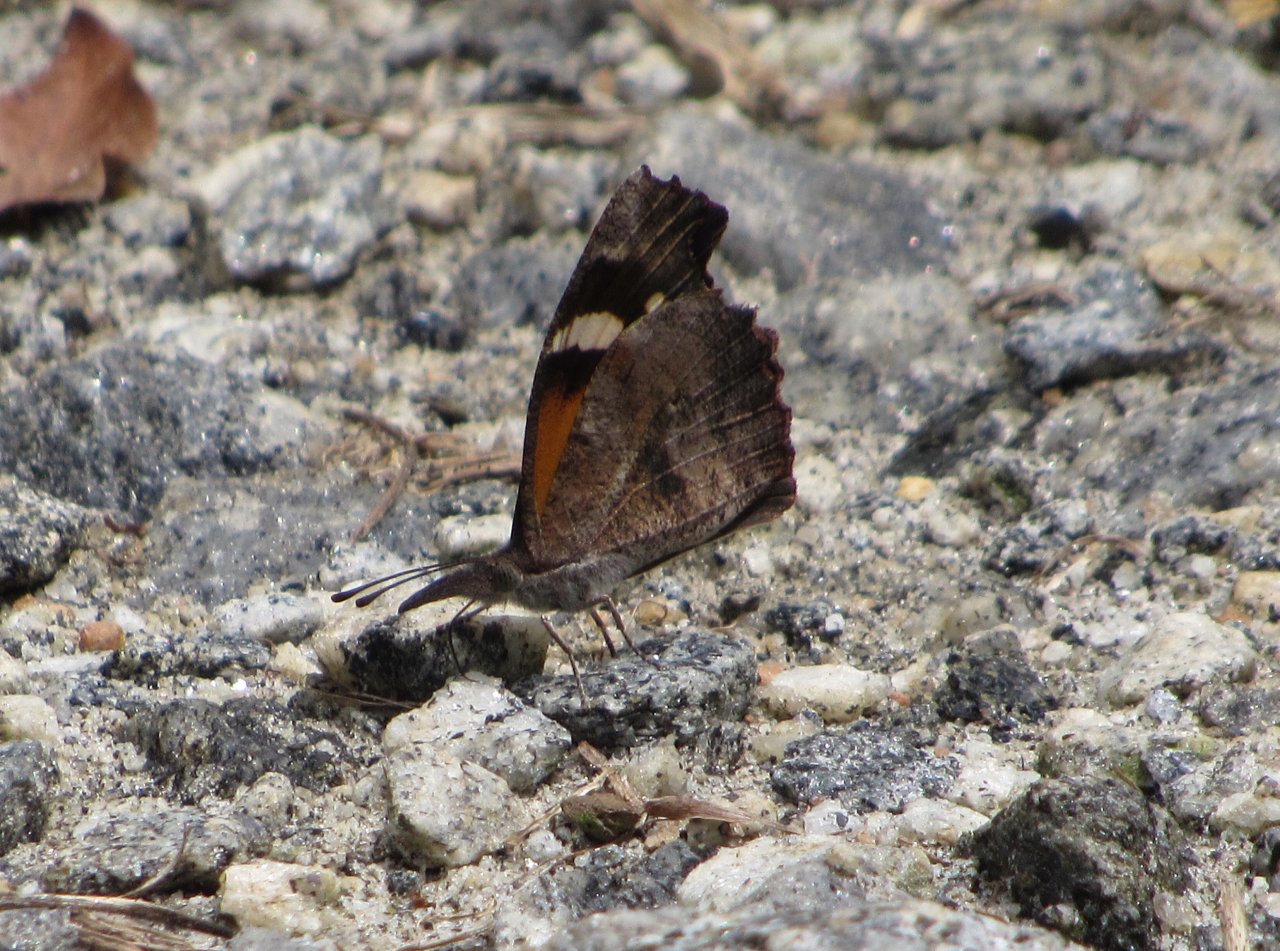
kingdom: Animalia
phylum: Arthropoda
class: Insecta
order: Lepidoptera
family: Nymphalidae
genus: Libytheana
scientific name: Libytheana carinenta
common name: American Snout
